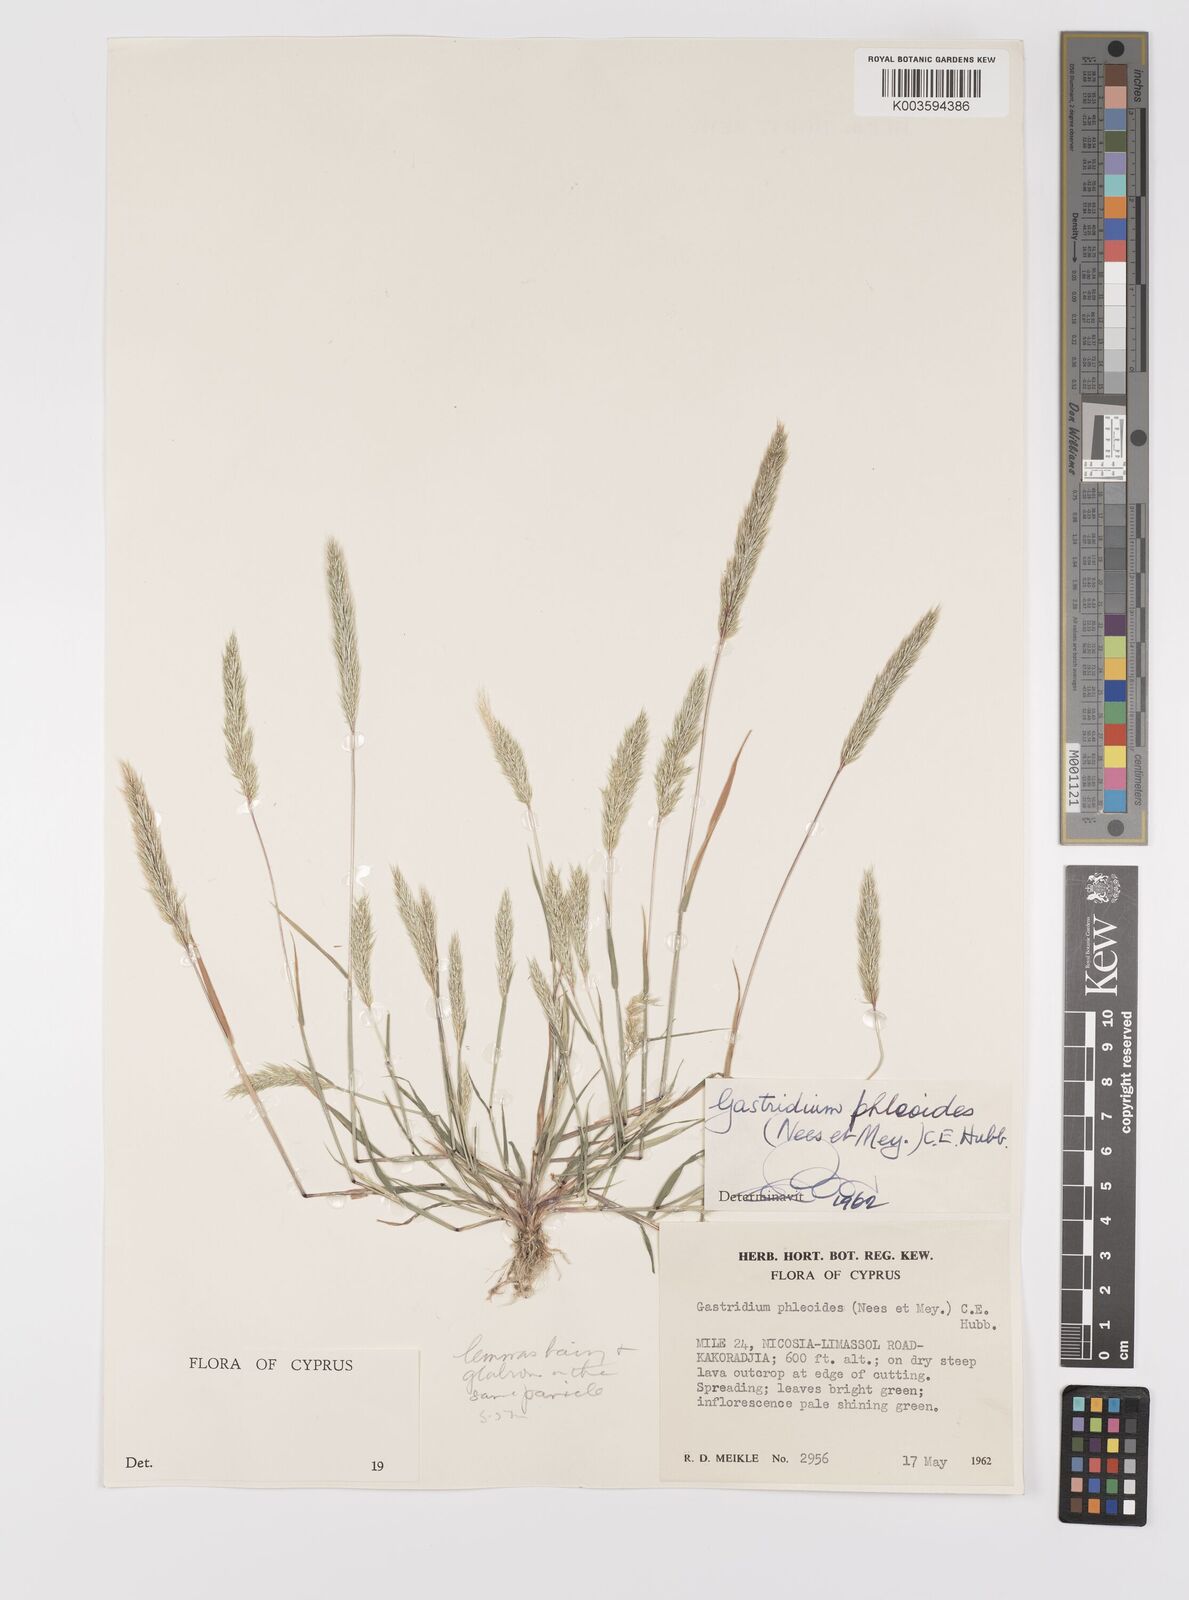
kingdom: Plantae
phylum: Tracheophyta
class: Liliopsida
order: Poales
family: Poaceae
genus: Gastridium
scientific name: Gastridium phleoides
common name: Nit grass
